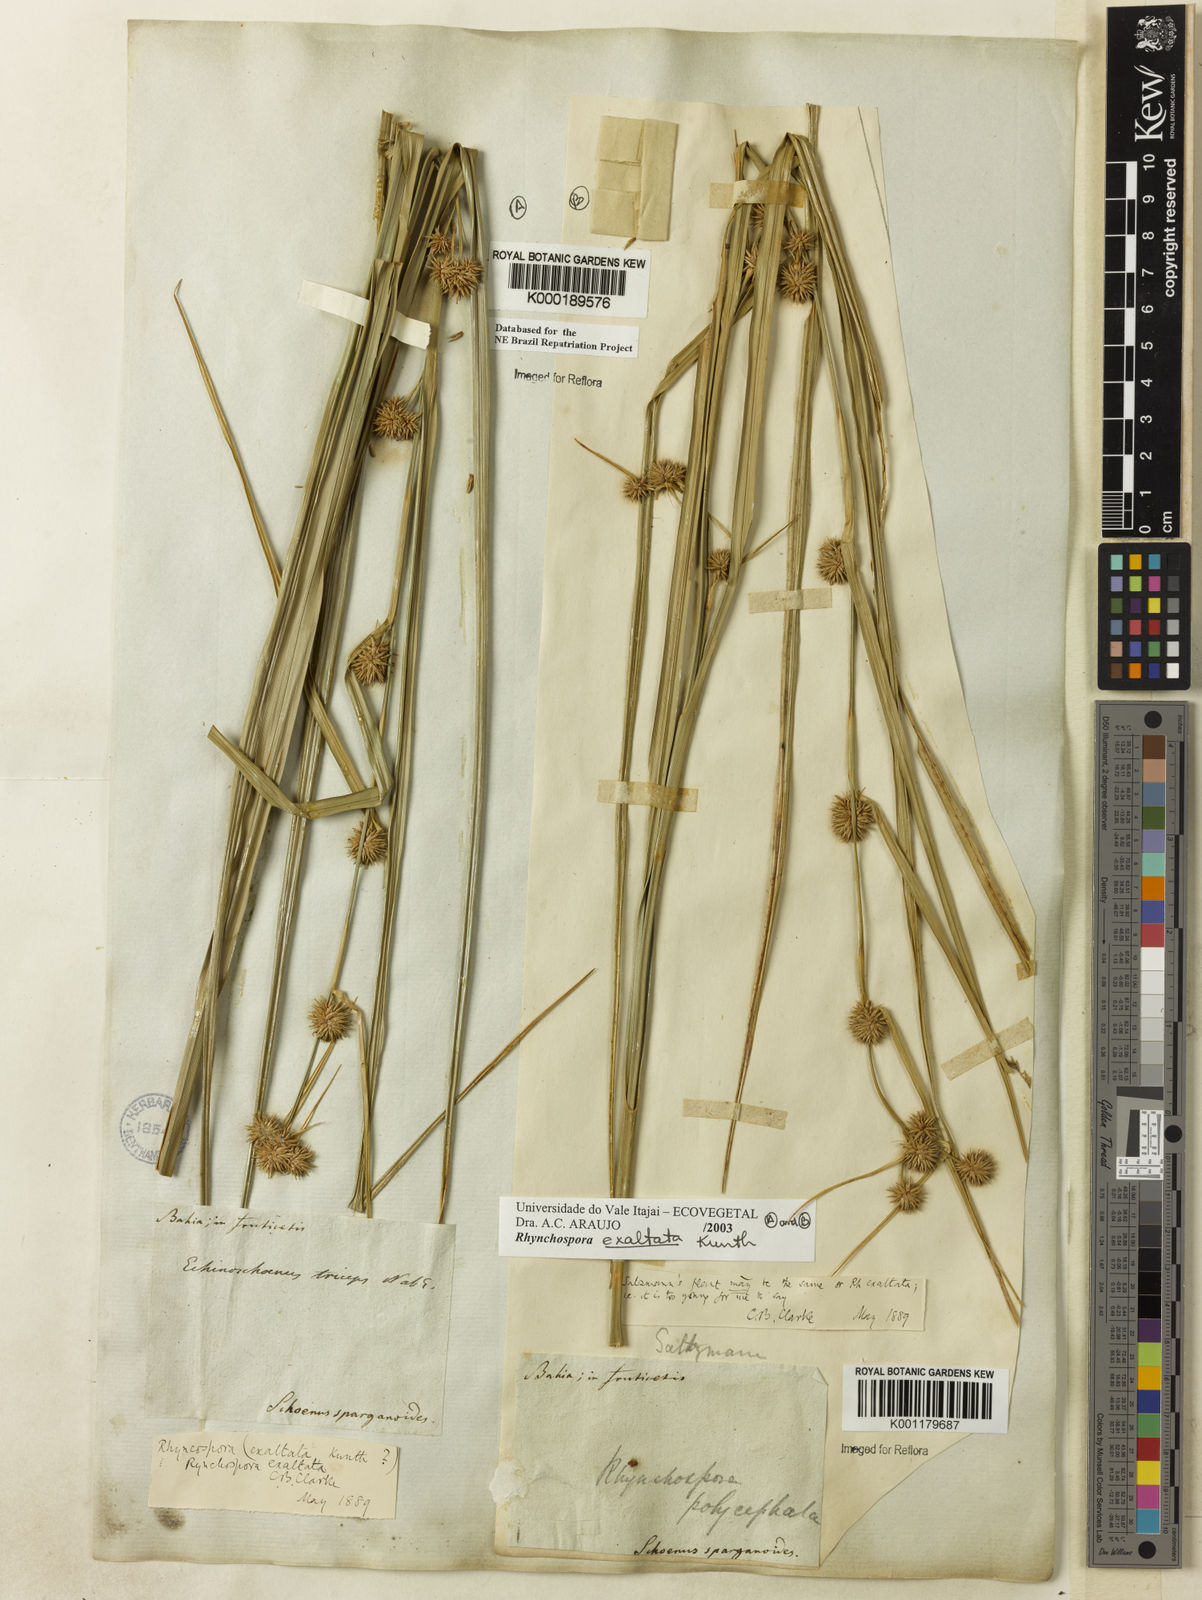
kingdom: Plantae
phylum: Tracheophyta
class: Liliopsida
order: Poales
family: Cyperaceae
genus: Rhynchospora
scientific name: Rhynchospora exaltata
